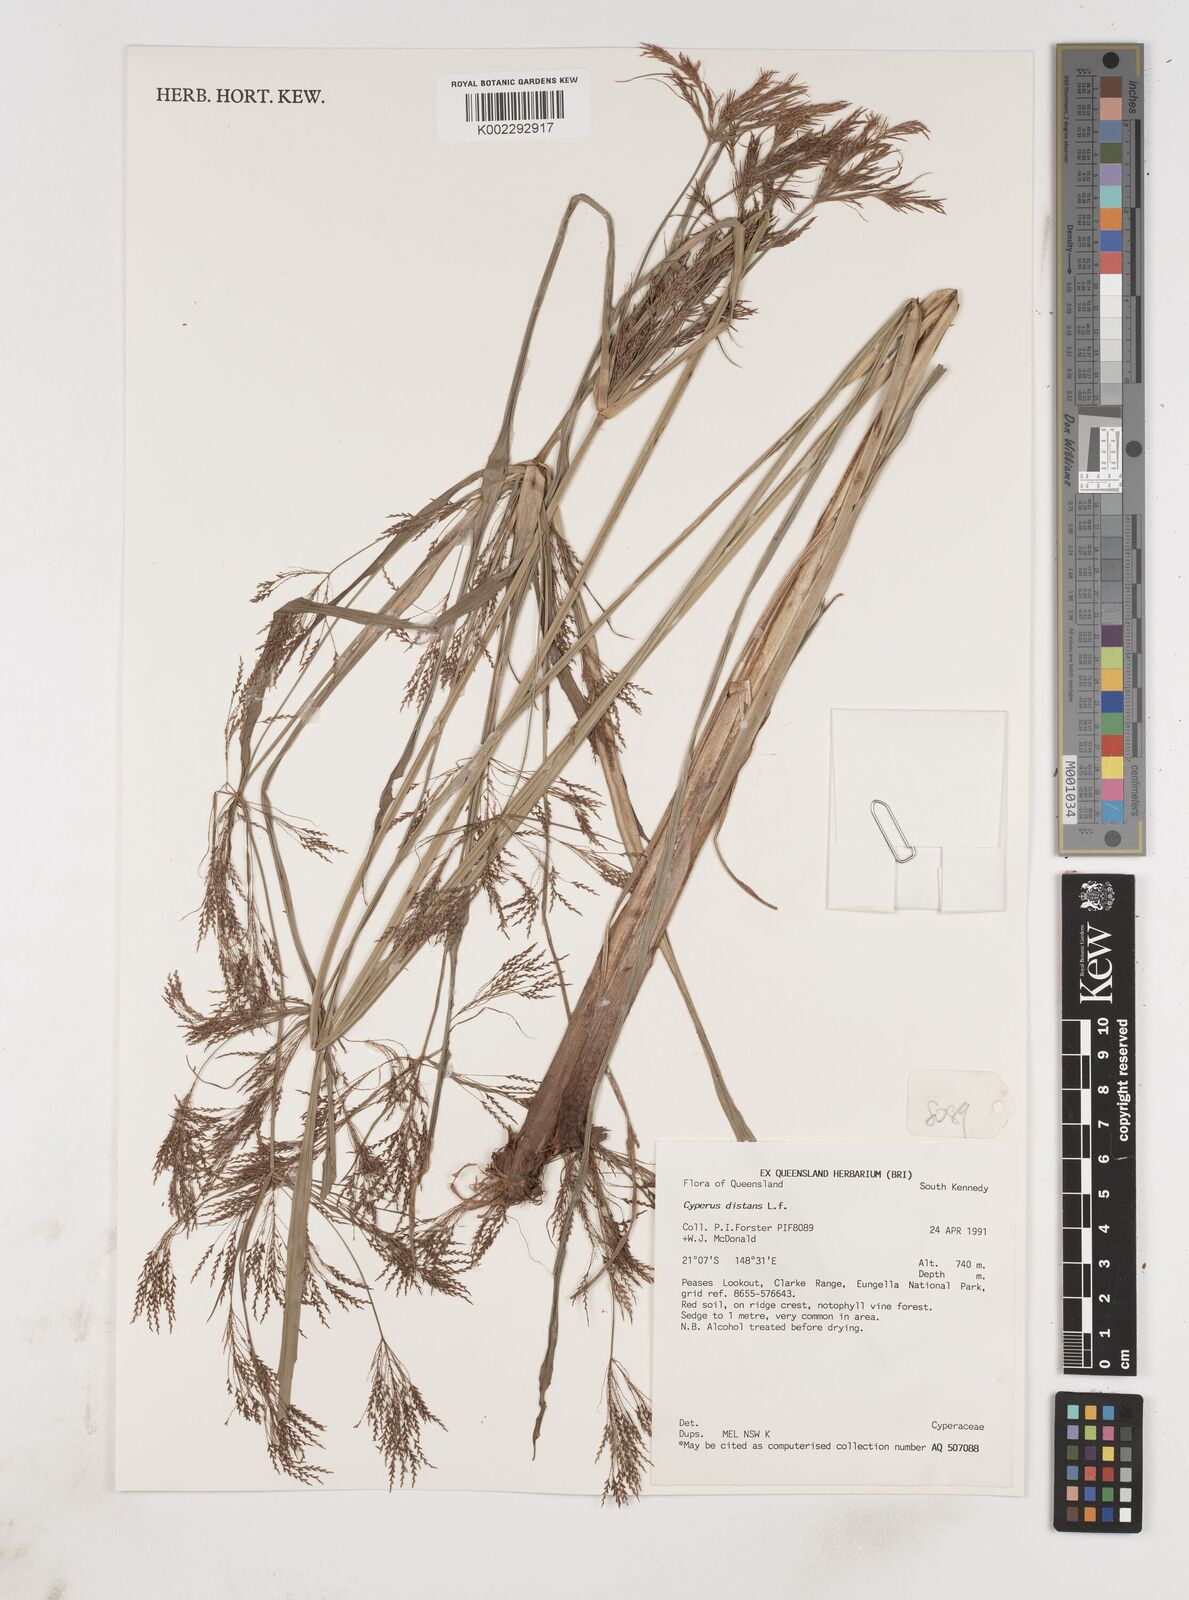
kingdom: Plantae
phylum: Tracheophyta
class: Liliopsida
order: Poales
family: Cyperaceae
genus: Cyperus
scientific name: Cyperus distans
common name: Slender cyperus
